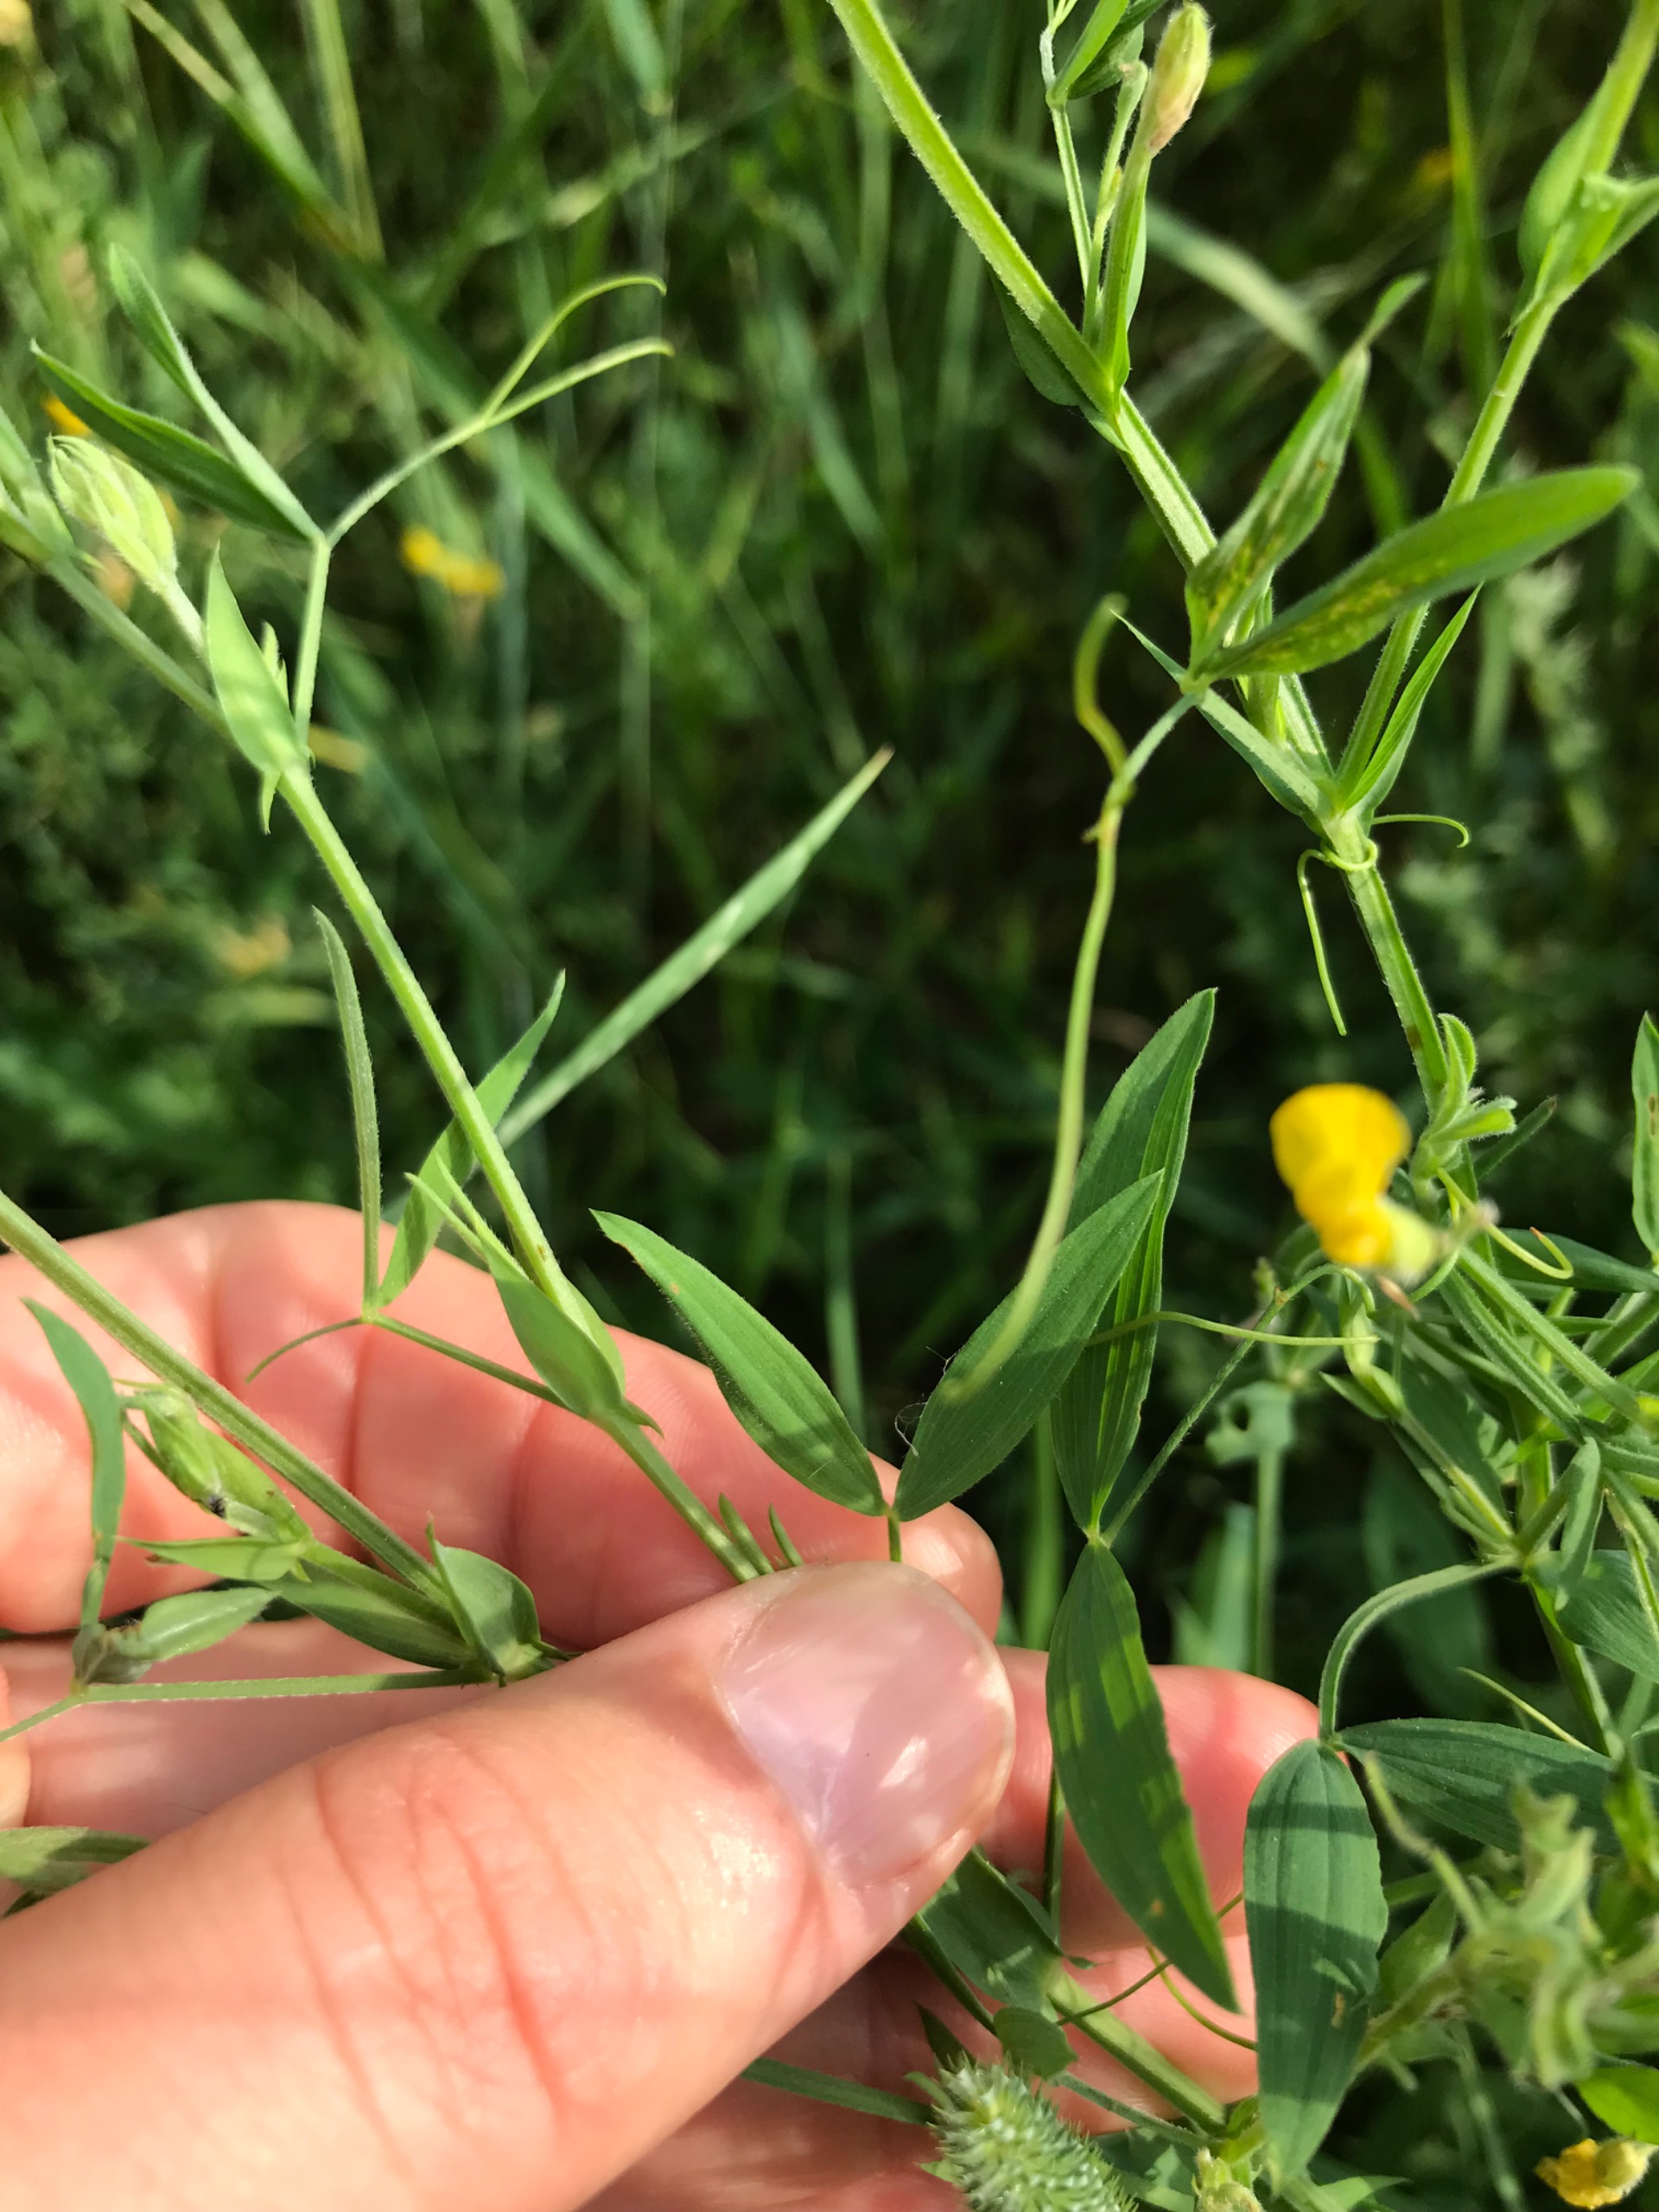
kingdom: Plantae
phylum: Tracheophyta
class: Magnoliopsida
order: Fabales
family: Fabaceae
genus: Lathyrus
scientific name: Lathyrus pratensis
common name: Gul fladbælg
